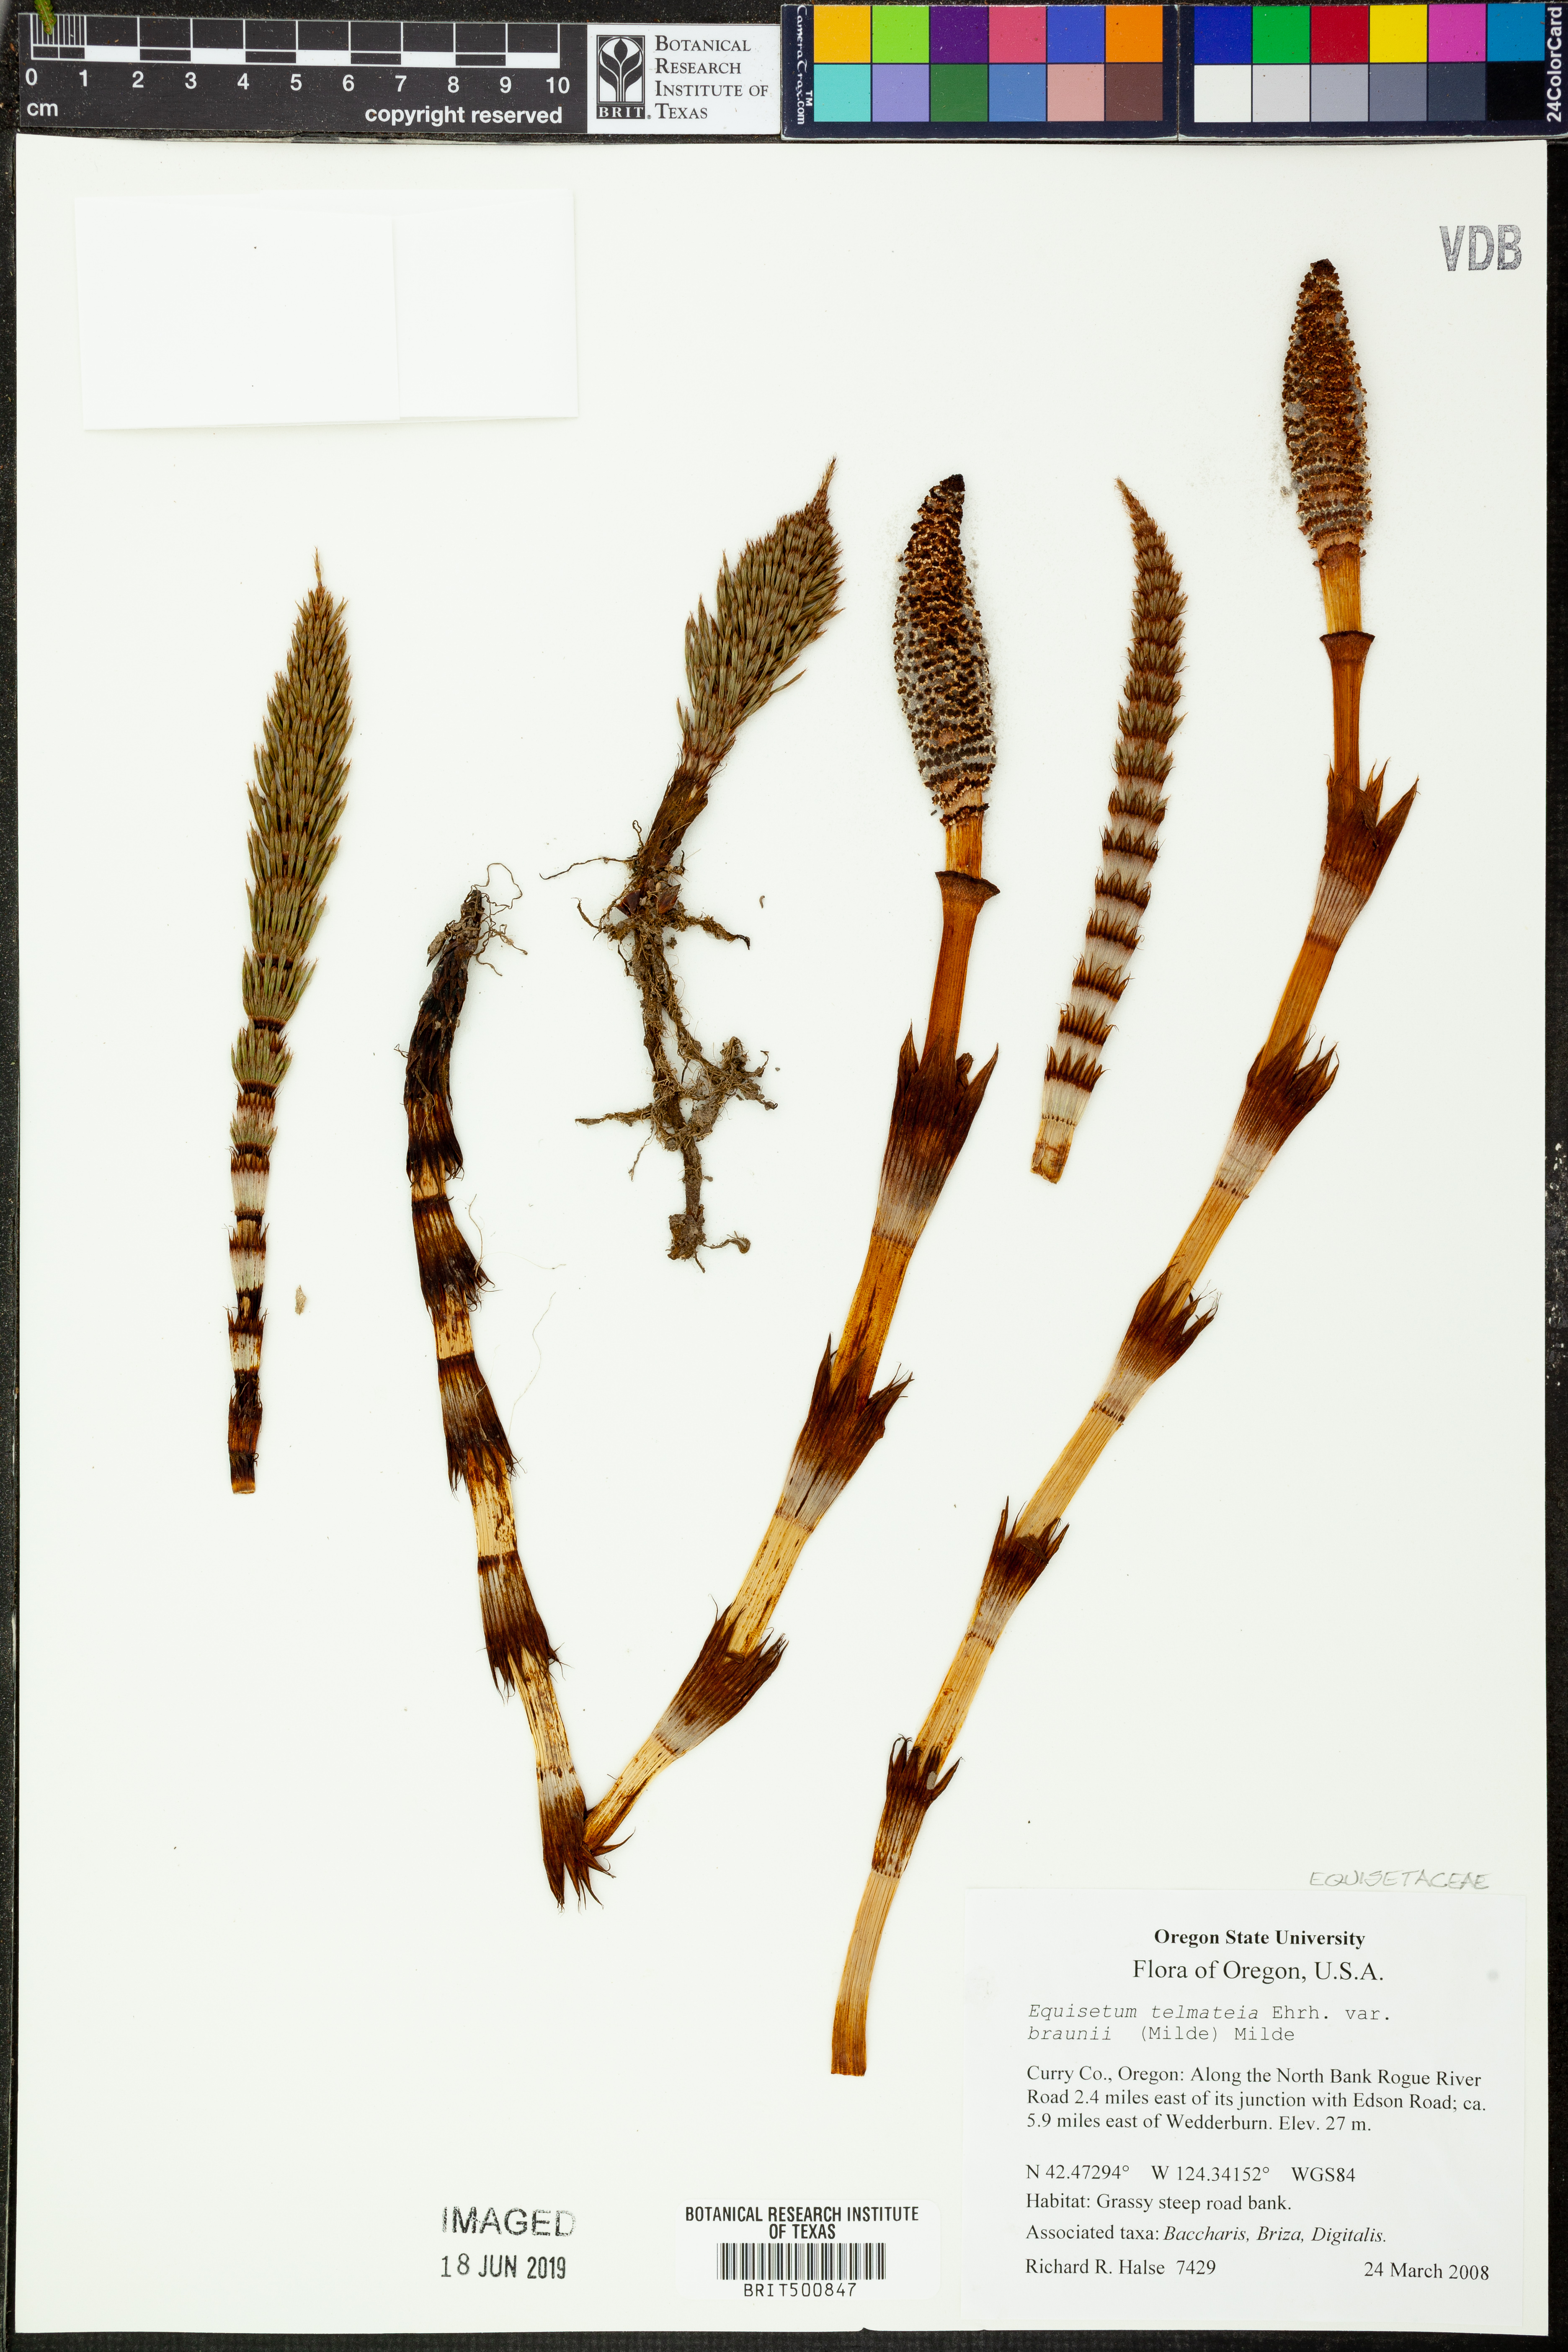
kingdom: Plantae
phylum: Tracheophyta
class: Polypodiopsida
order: Equisetales
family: Equisetaceae
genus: Equisetum
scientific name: Equisetum telmateia
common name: Great horsetail
